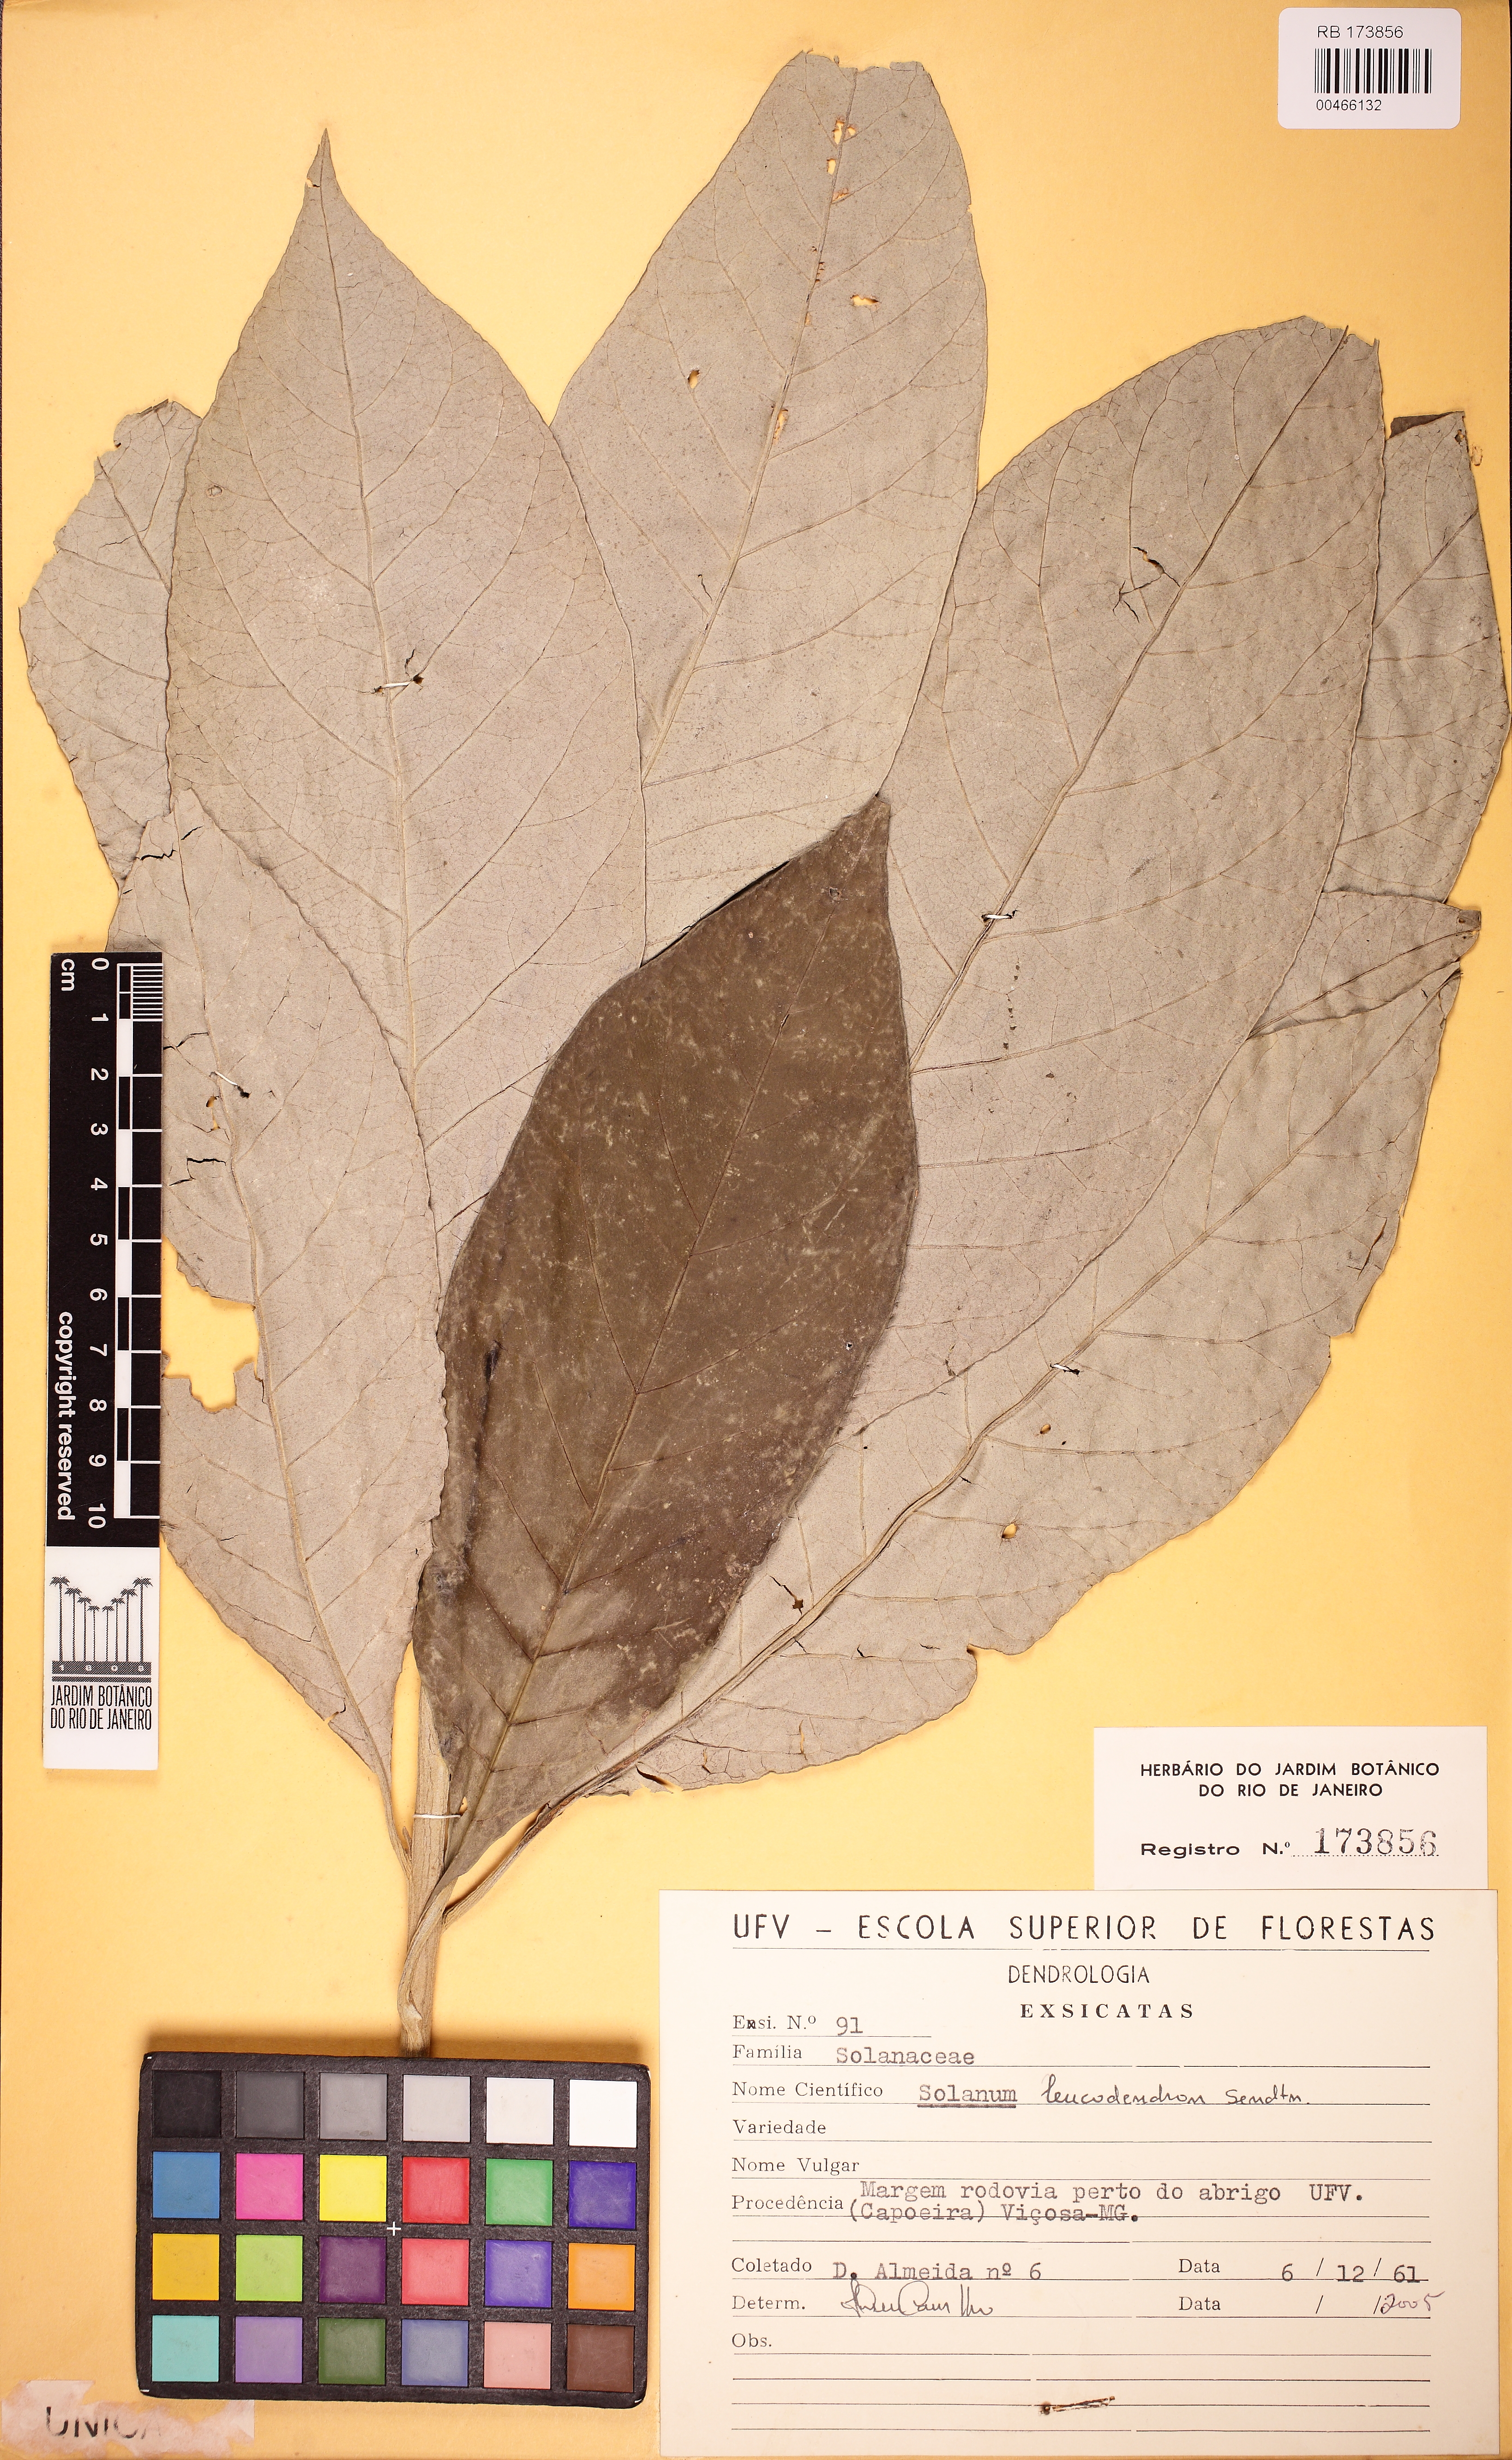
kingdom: Plantae
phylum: Tracheophyta
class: Magnoliopsida
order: Solanales
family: Solanaceae
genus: Solanum
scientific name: Solanum leucodendron
